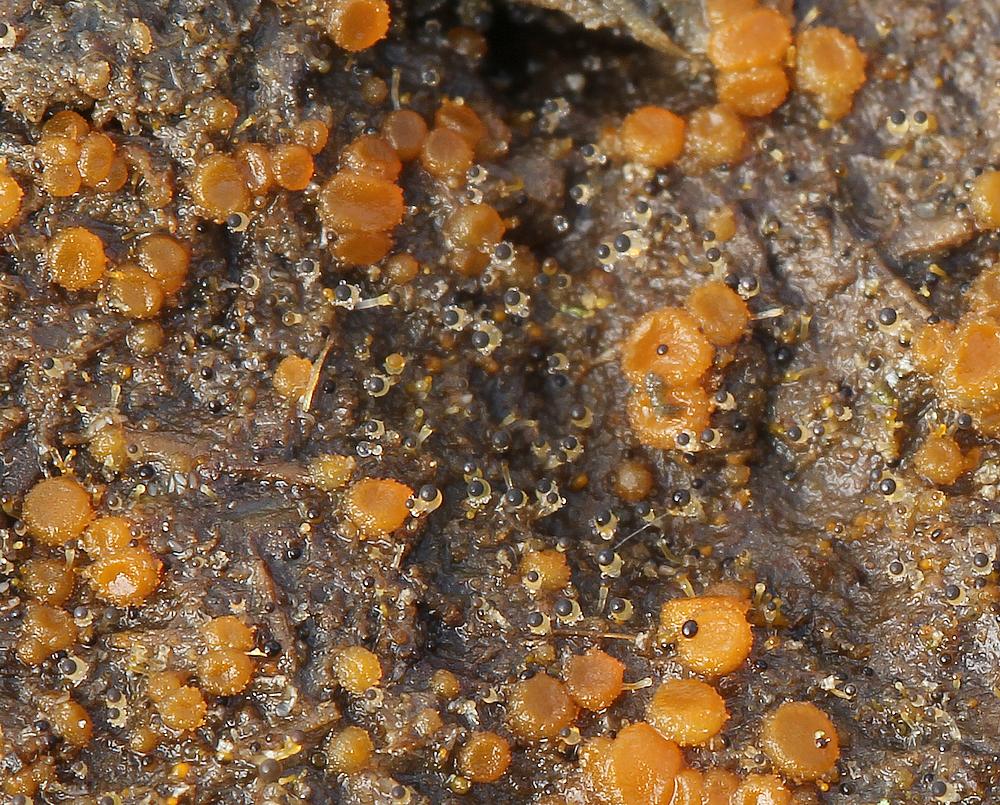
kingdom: Fungi
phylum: Mucoromycota
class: Mucoromycetes
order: Mucorales
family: Pilobolaceae
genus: Pilobolus
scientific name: Pilobolus
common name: boldkaster
